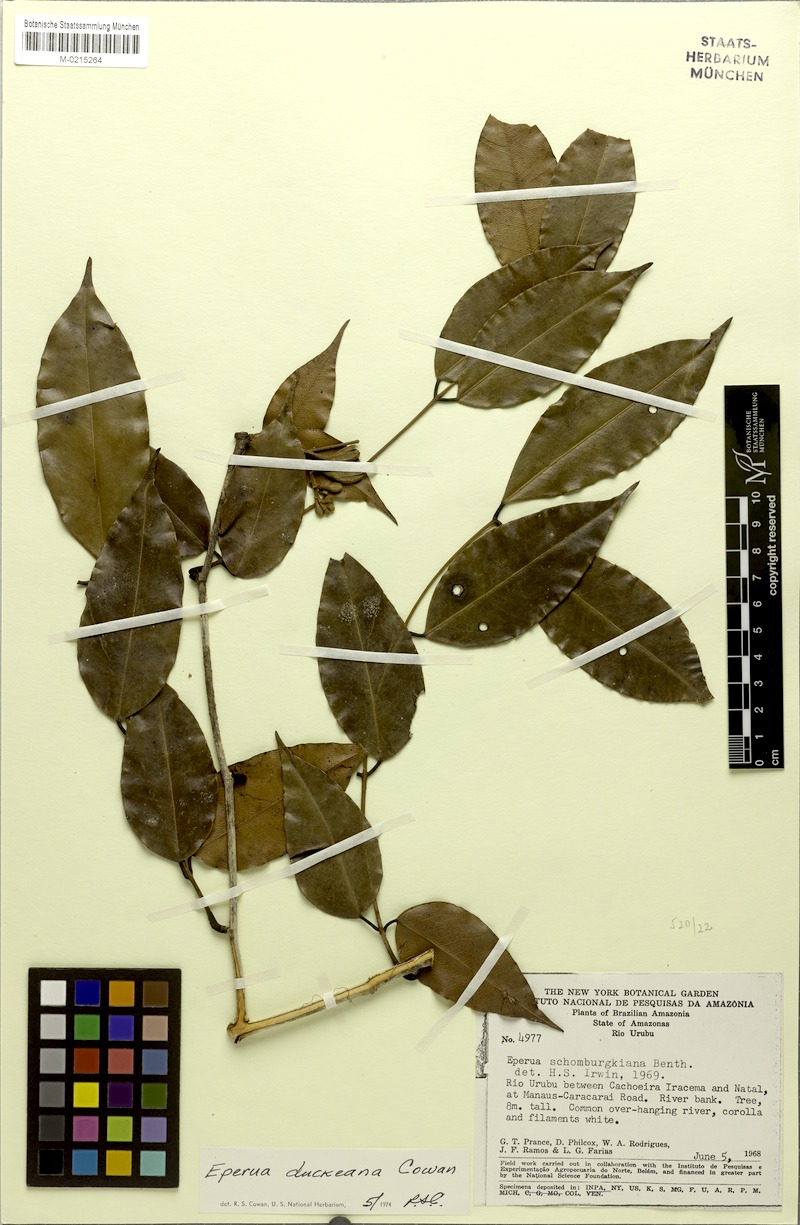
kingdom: Plantae
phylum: Tracheophyta
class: Magnoliopsida
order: Fabales
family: Fabaceae
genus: Eperua
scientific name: Eperua duckeana
